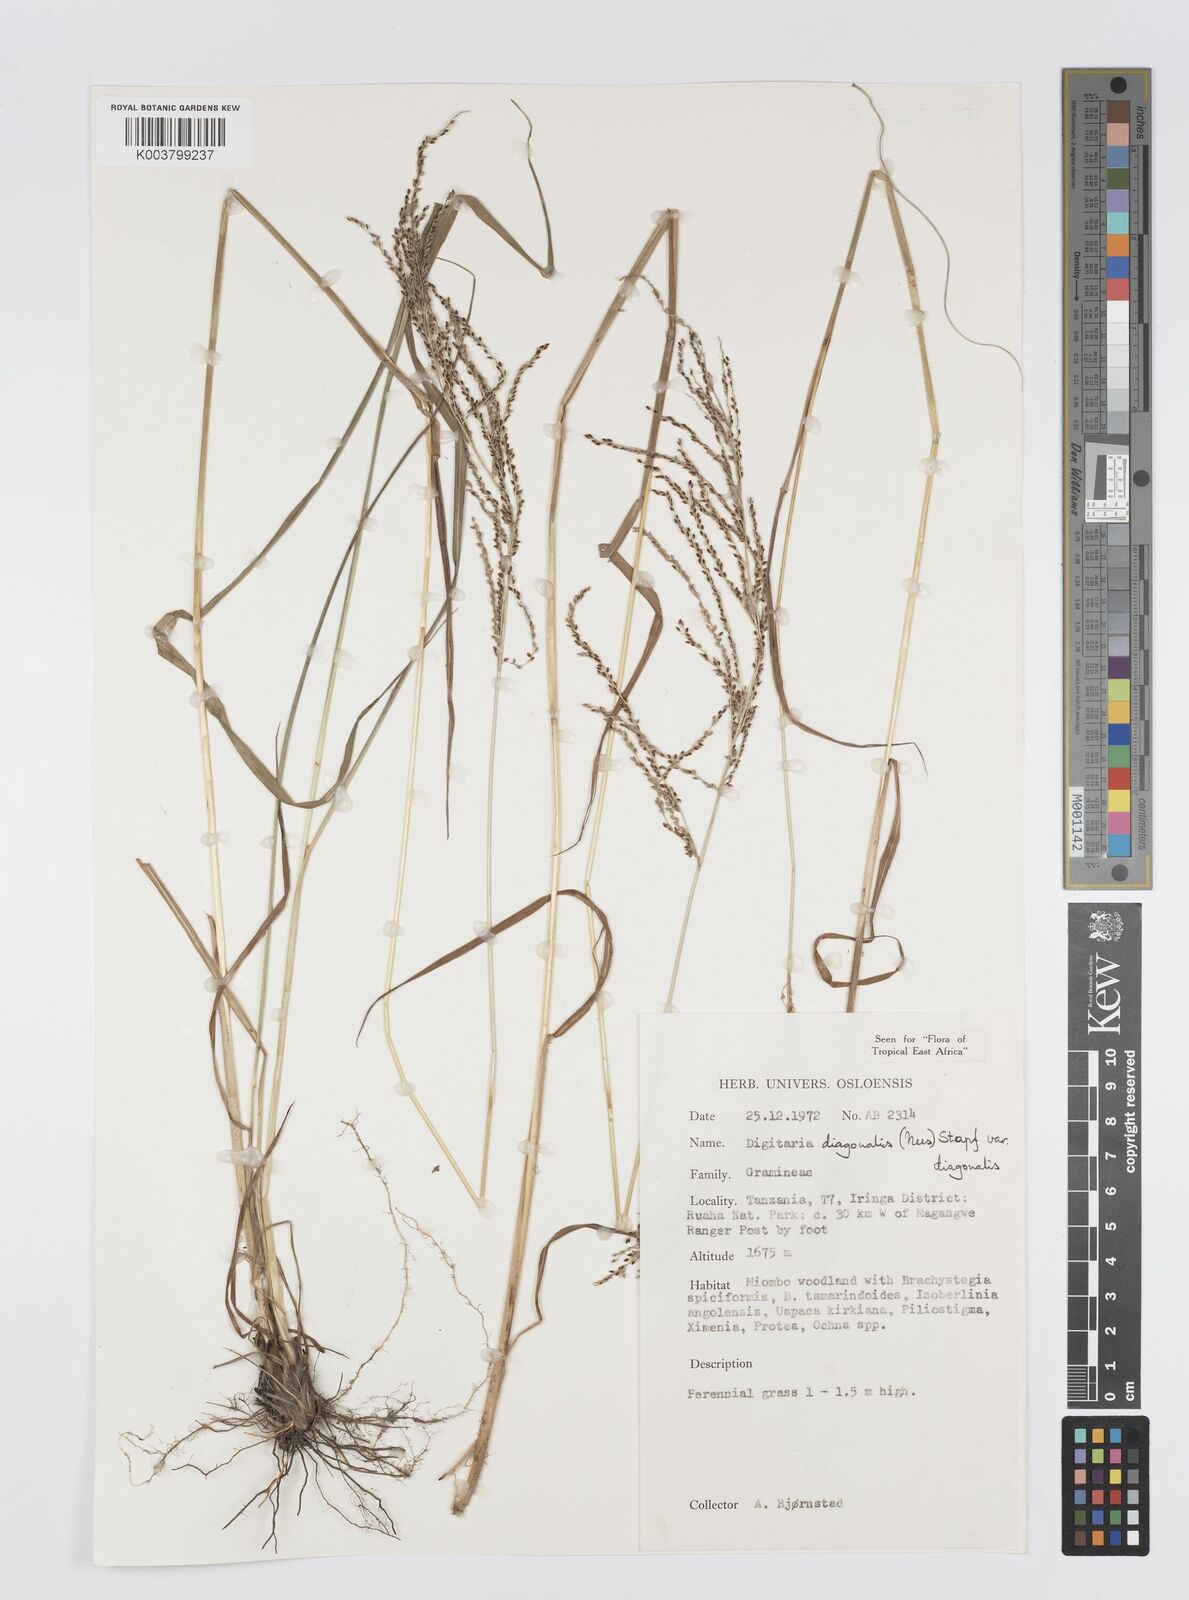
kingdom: Plantae
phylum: Tracheophyta
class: Liliopsida
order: Poales
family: Poaceae
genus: Digitaria
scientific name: Digitaria diagonalis
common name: Brown-seed finger grass
